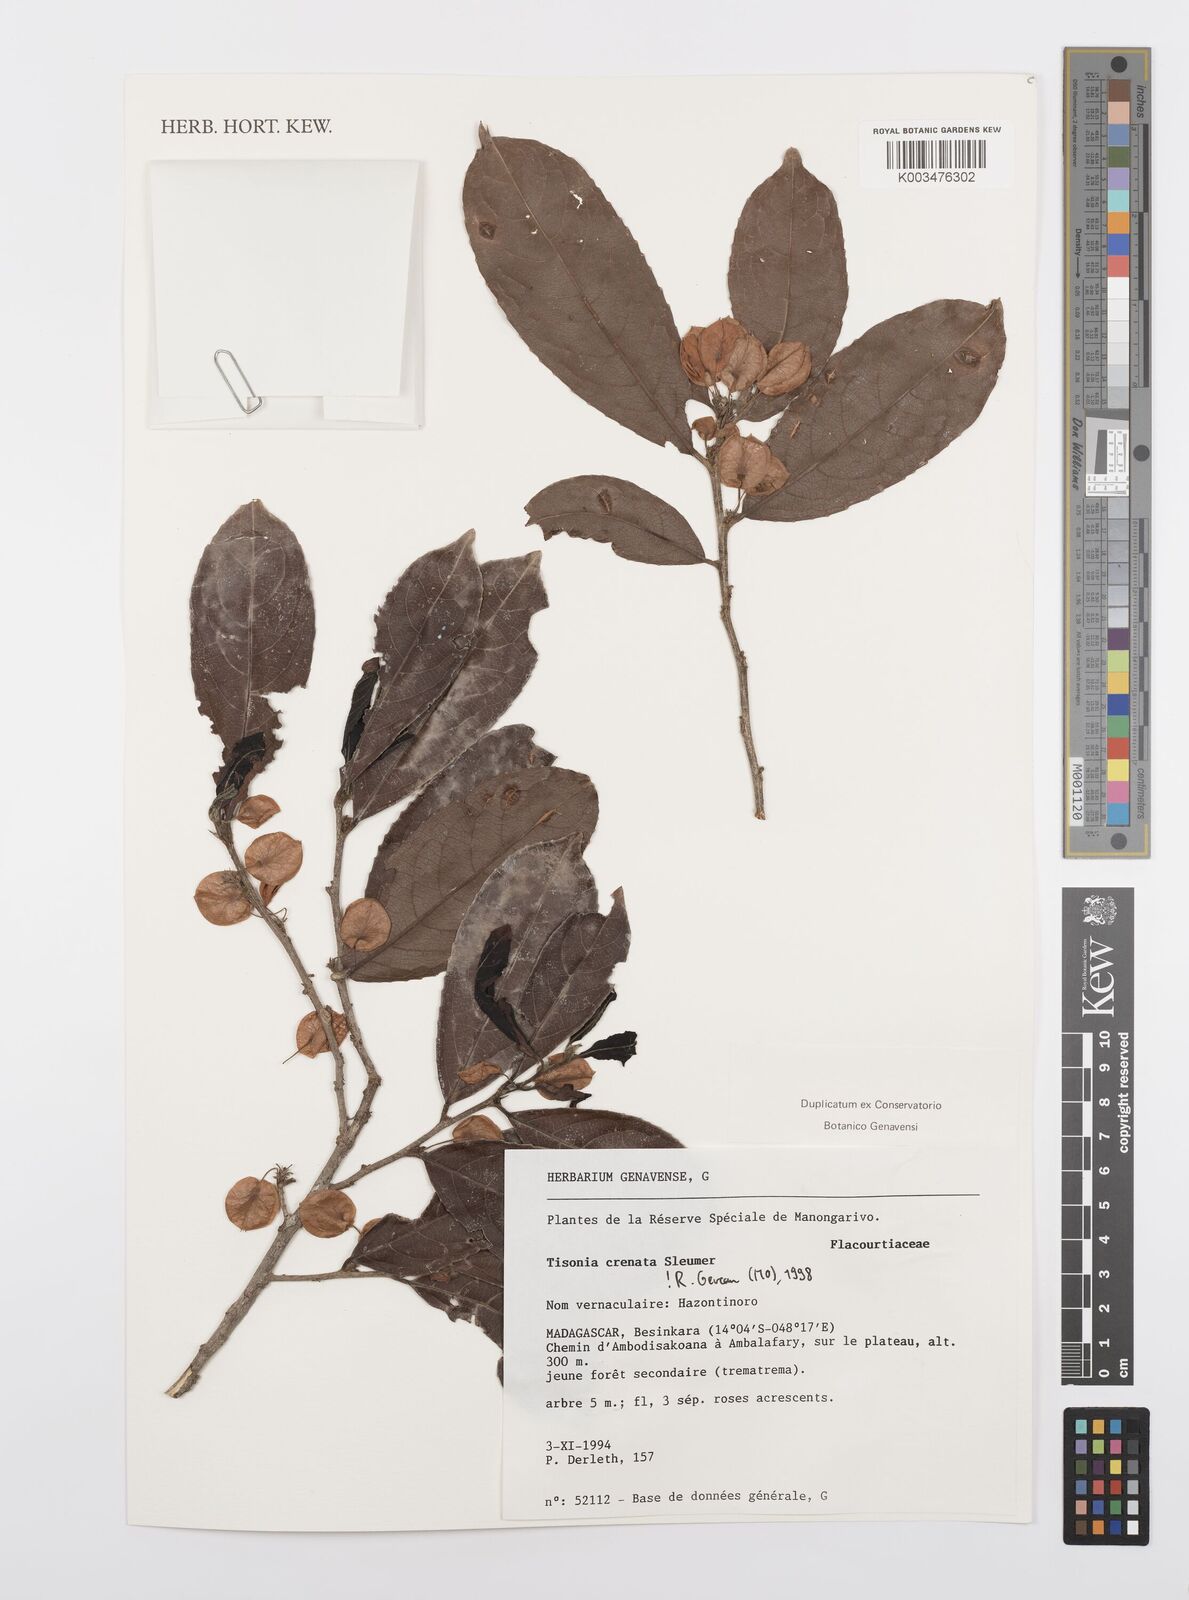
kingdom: Plantae
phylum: Tracheophyta
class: Magnoliopsida
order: Malpighiales
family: Salicaceae
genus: Tisonia
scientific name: Tisonia baronii
